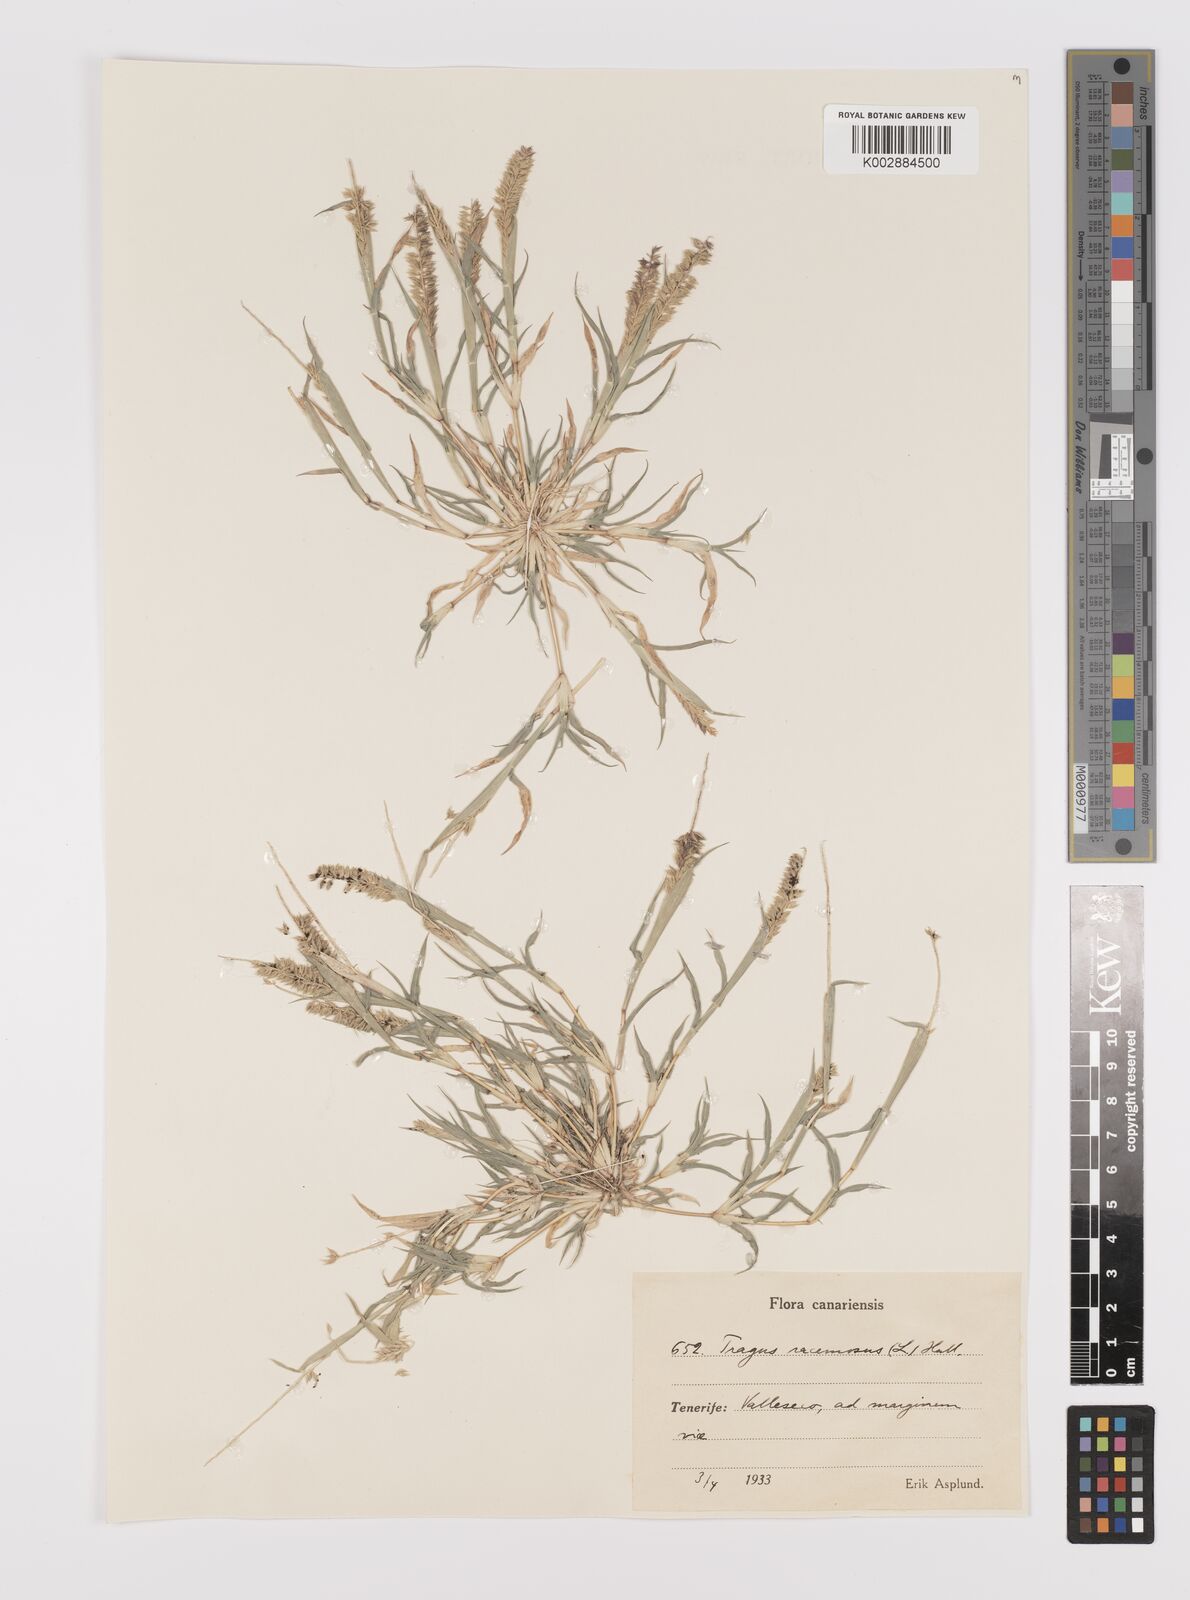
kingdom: Plantae
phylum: Tracheophyta
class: Liliopsida
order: Poales
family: Poaceae
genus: Tragus
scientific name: Tragus racemosus
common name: European bur-grass
